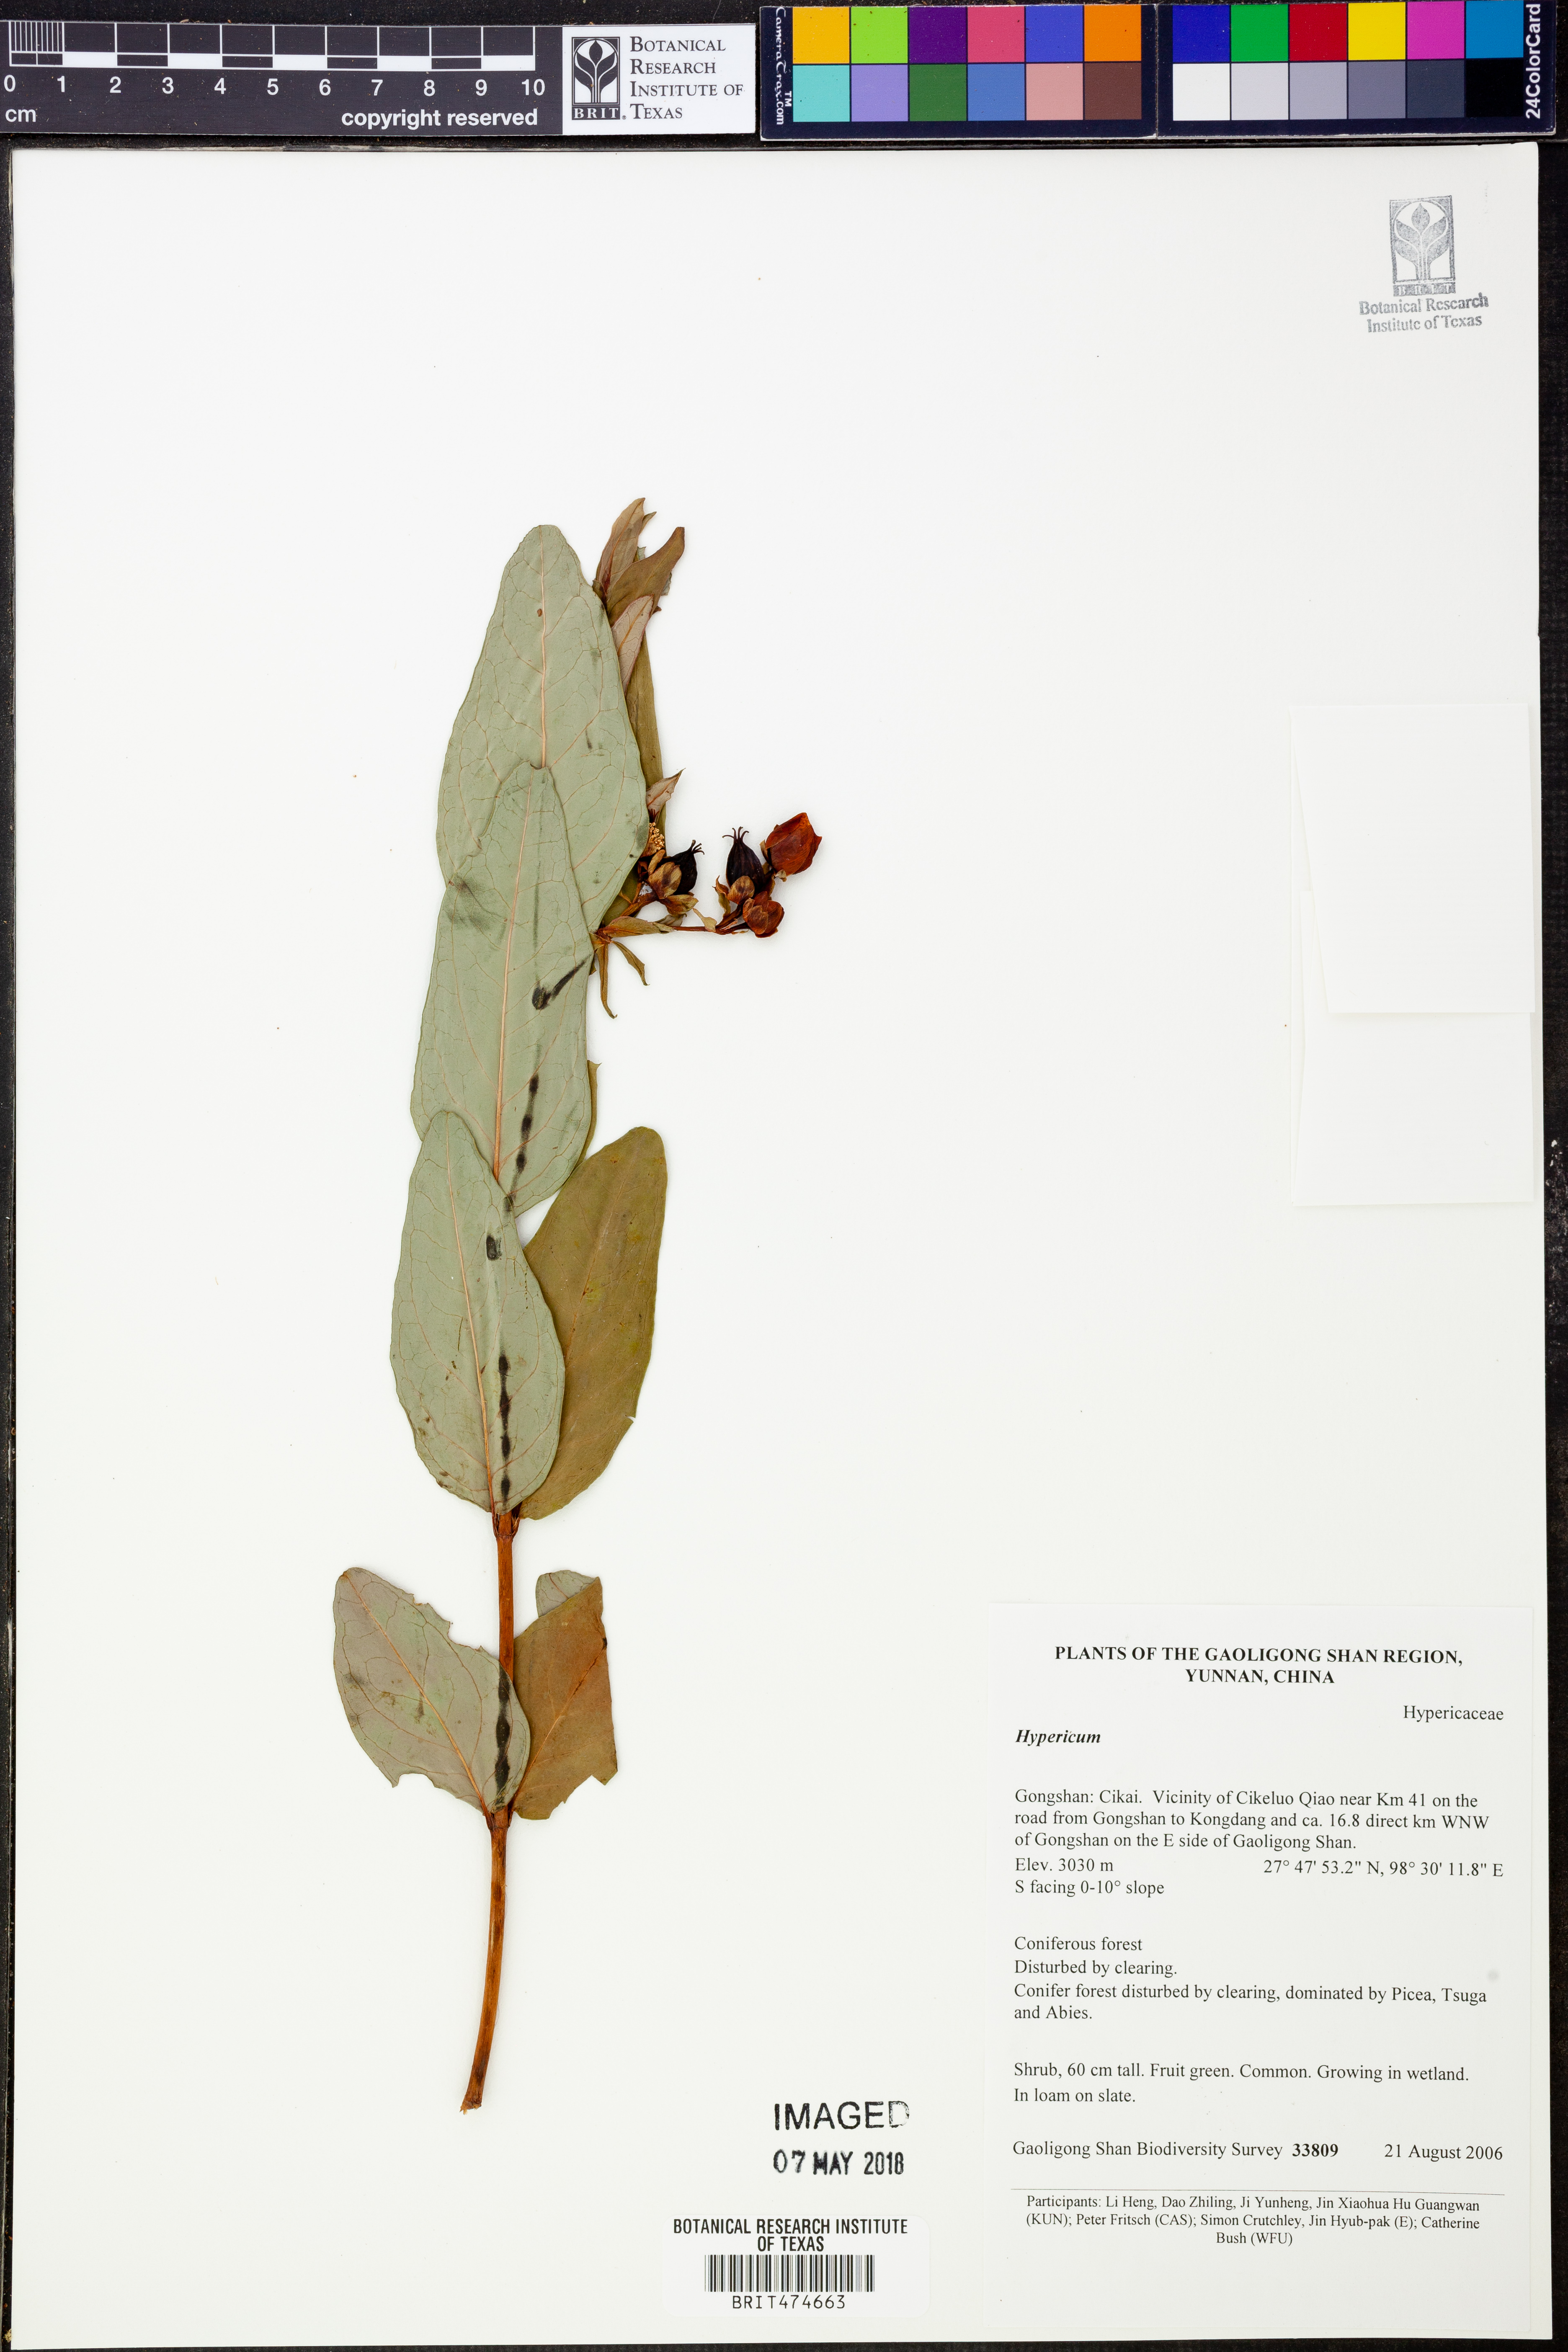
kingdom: Plantae
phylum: Tracheophyta
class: Magnoliopsida
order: Malpighiales
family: Hypericaceae
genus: Hypericum
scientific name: Hypericum
